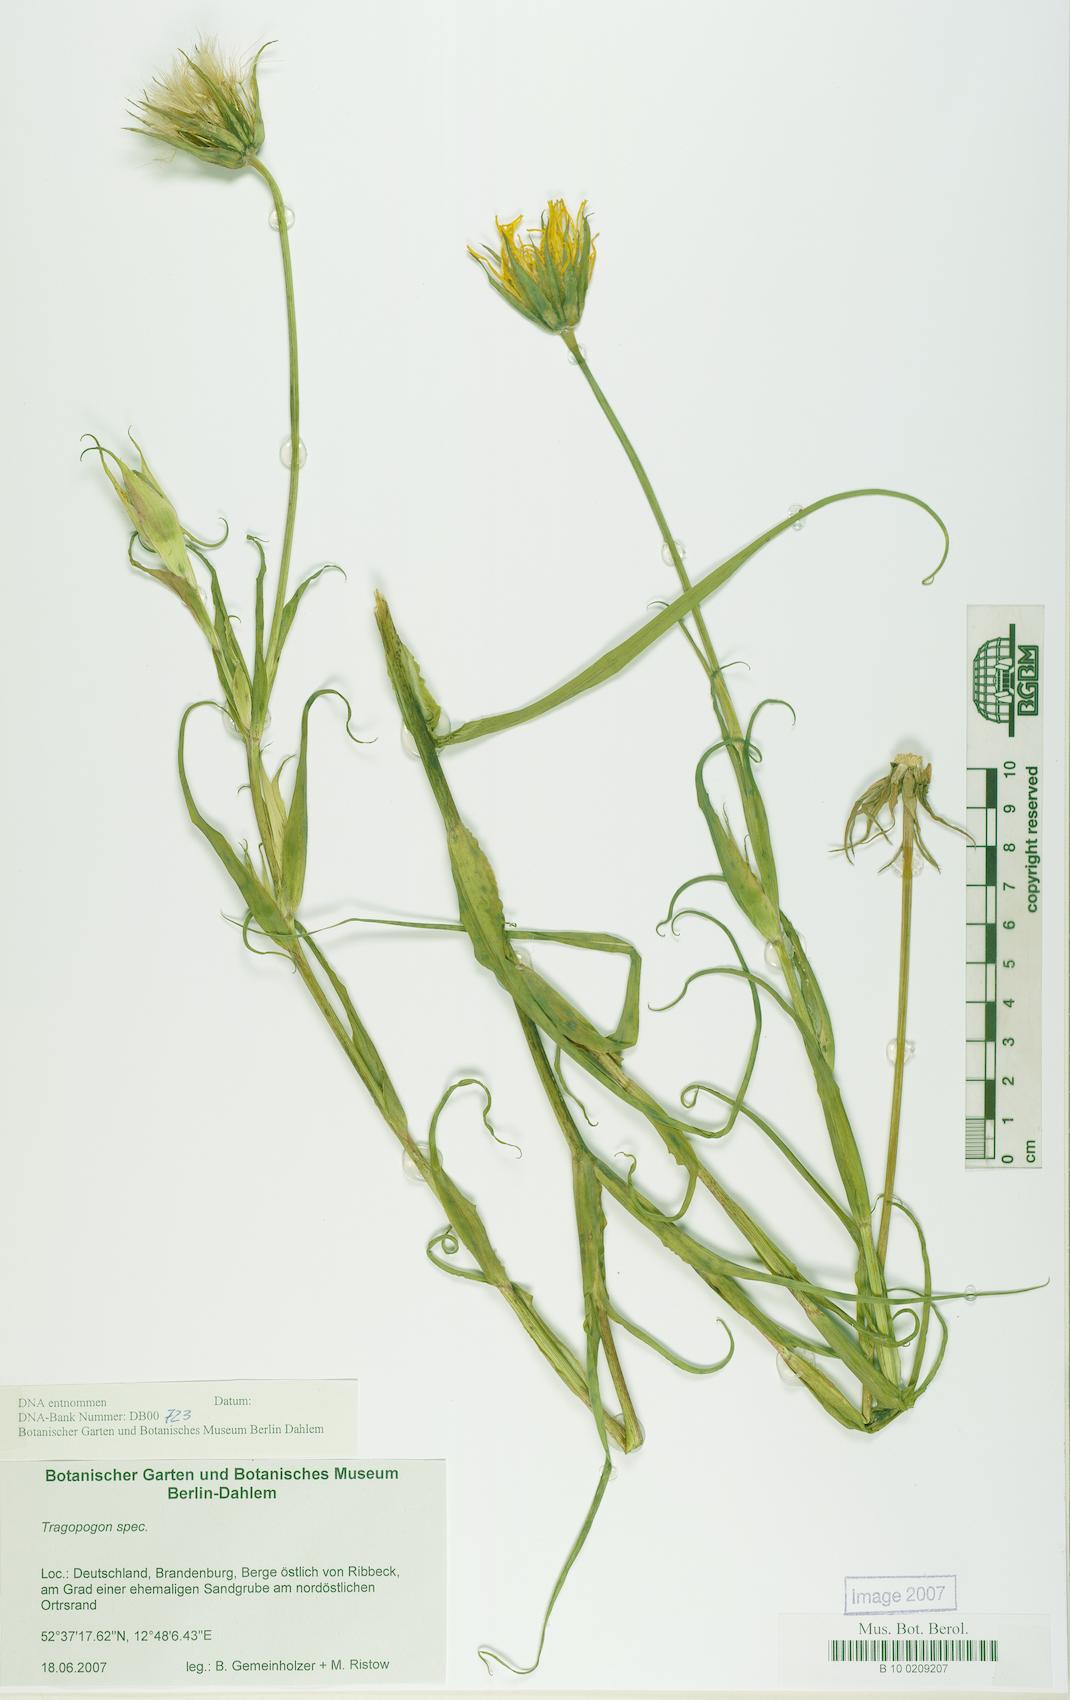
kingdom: Plantae
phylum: Tracheophyta
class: Magnoliopsida
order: Asterales
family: Asteraceae
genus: Tragopogon
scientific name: Tragopogon
